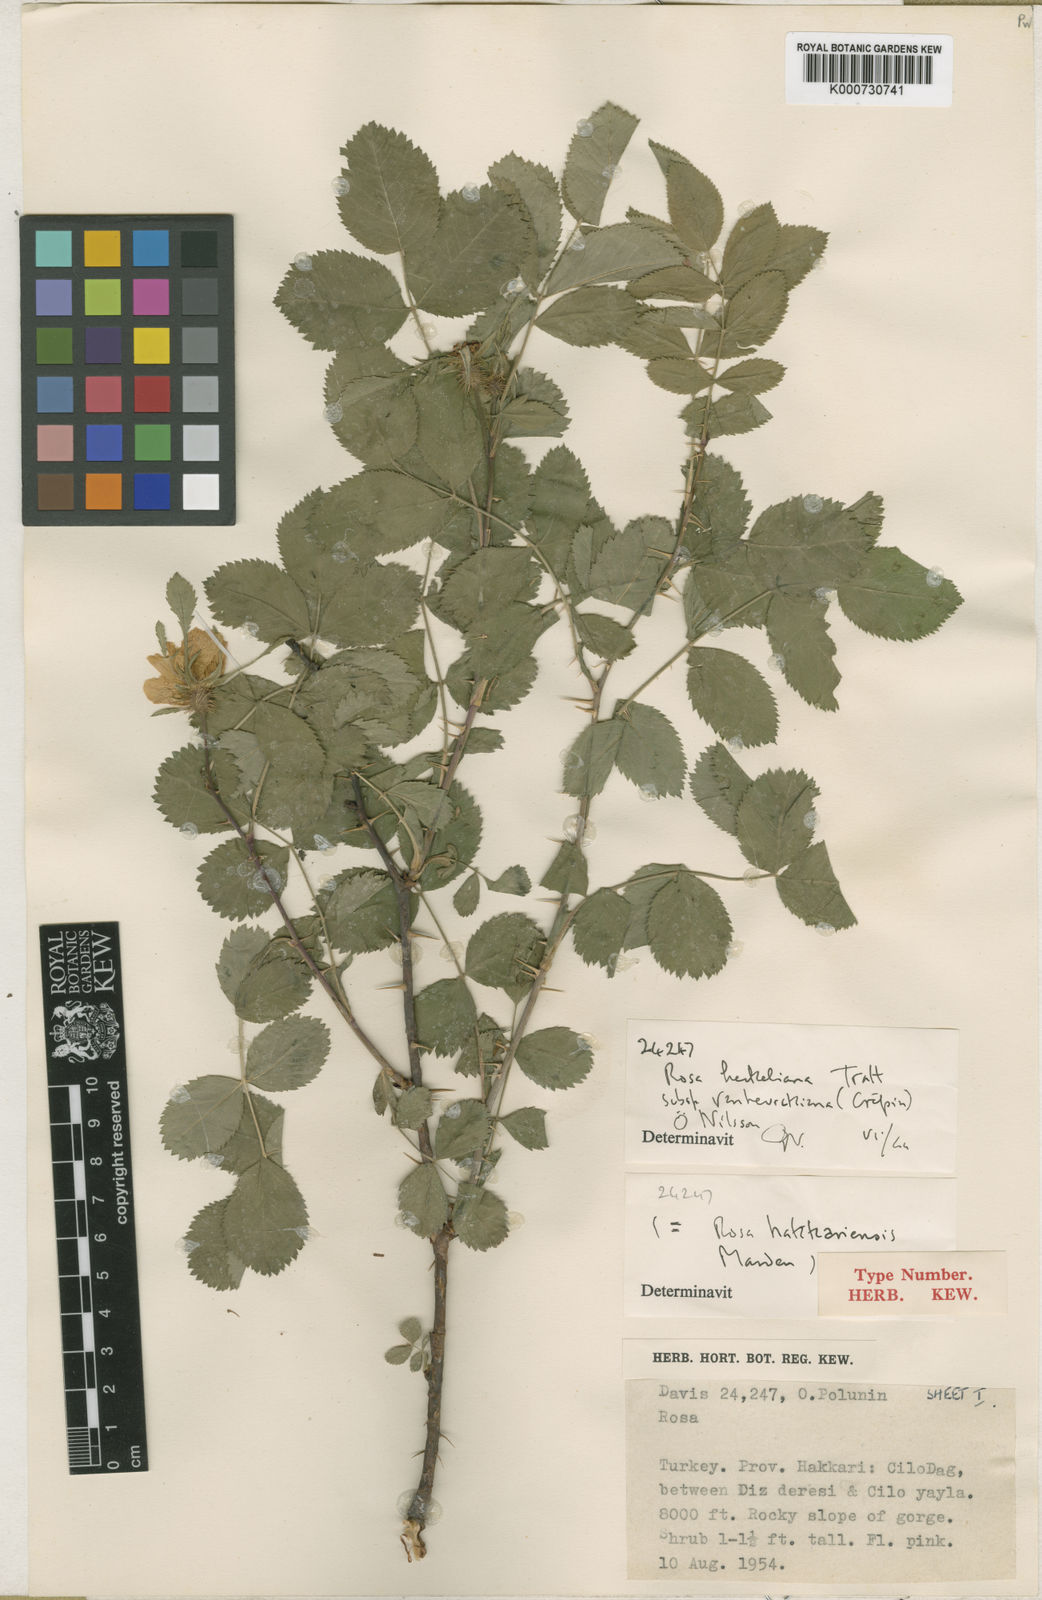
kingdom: Plantae
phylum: Tracheophyta
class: Magnoliopsida
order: Rosales
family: Rosaceae
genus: Rosa
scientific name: Rosa heckeliana
